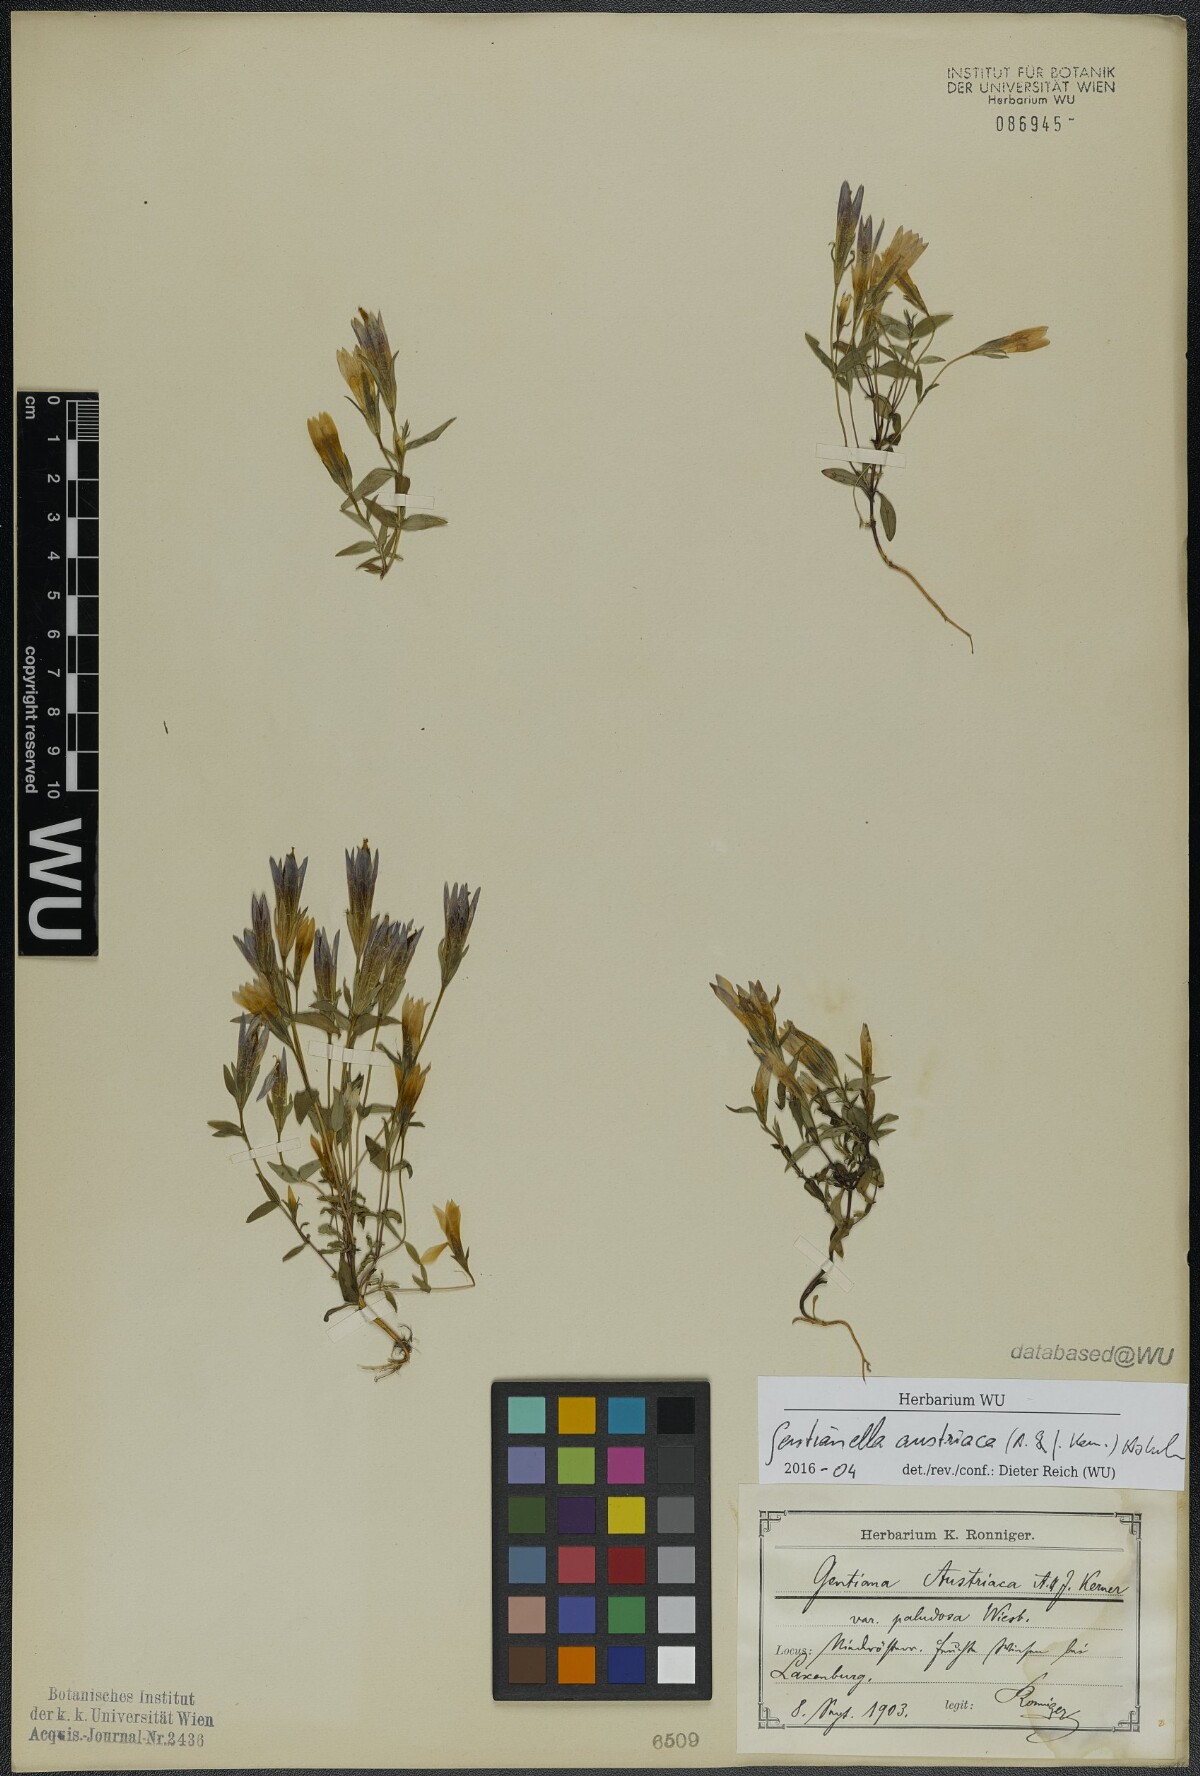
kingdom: Plantae
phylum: Tracheophyta
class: Magnoliopsida
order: Gentianales
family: Gentianaceae
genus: Gentianella
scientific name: Gentianella austriaca
